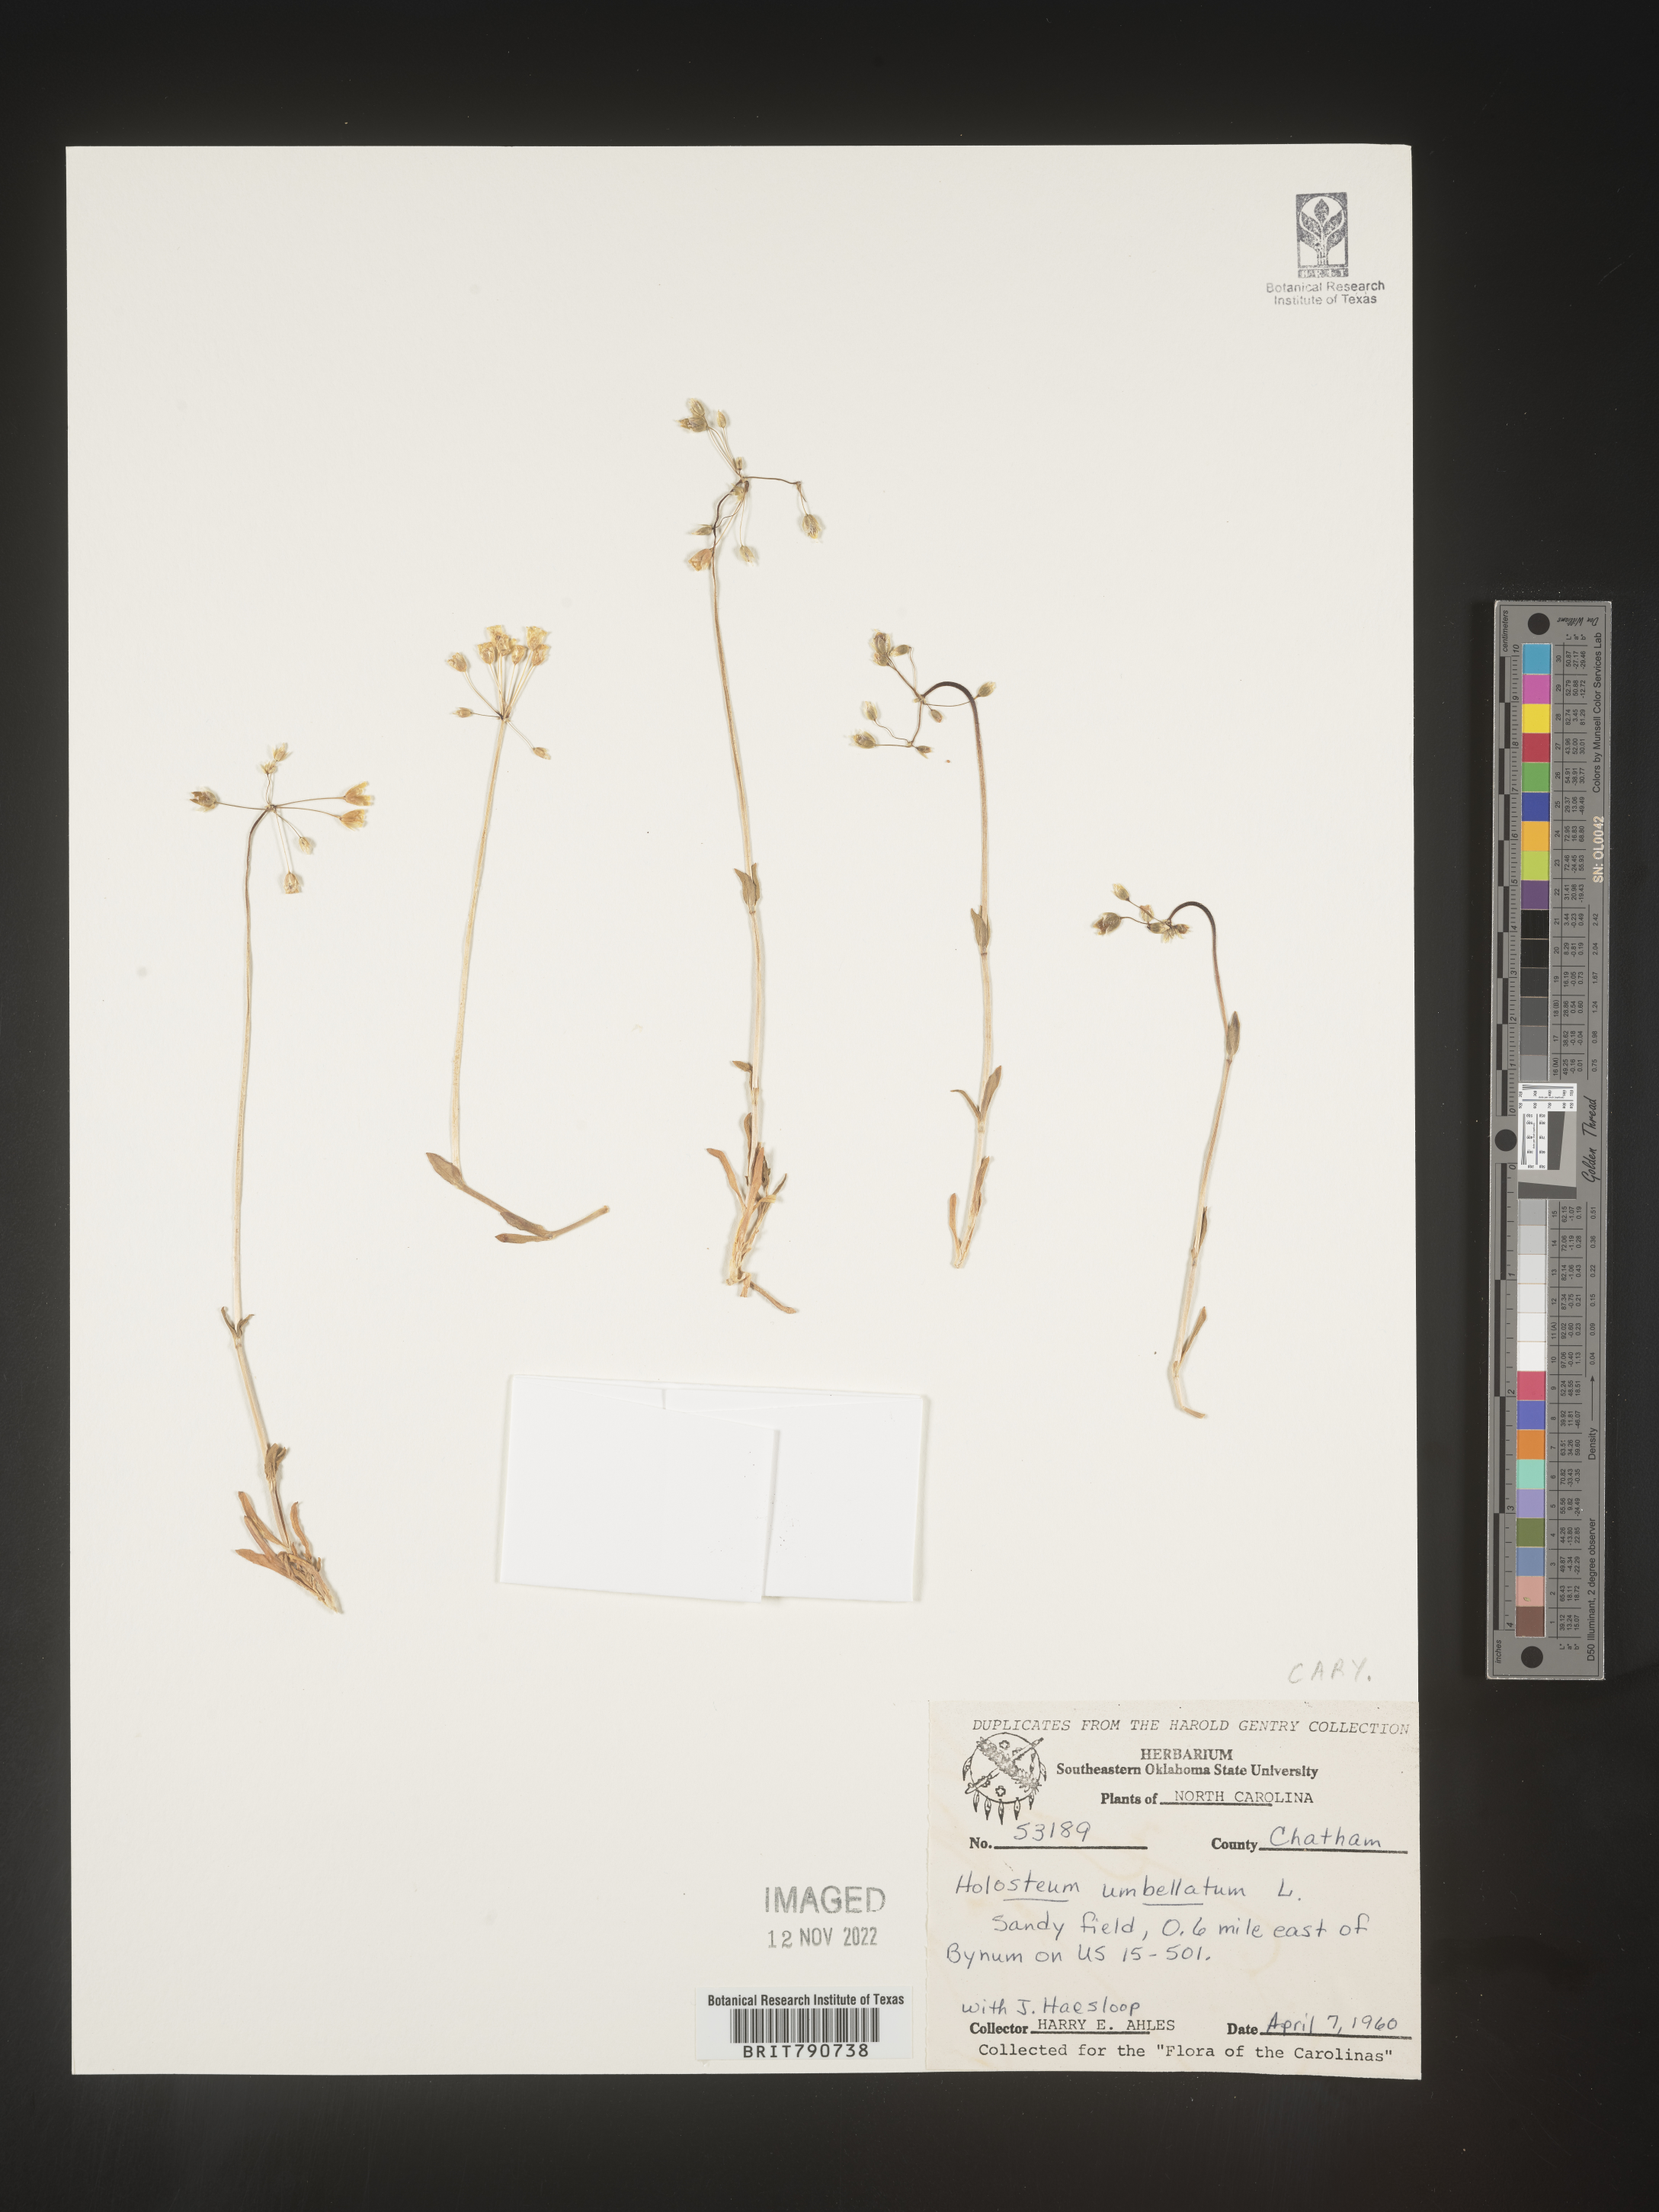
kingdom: Plantae
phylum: Tracheophyta
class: Magnoliopsida
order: Caryophyllales
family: Caryophyllaceae
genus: Holosteum
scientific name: Holosteum
